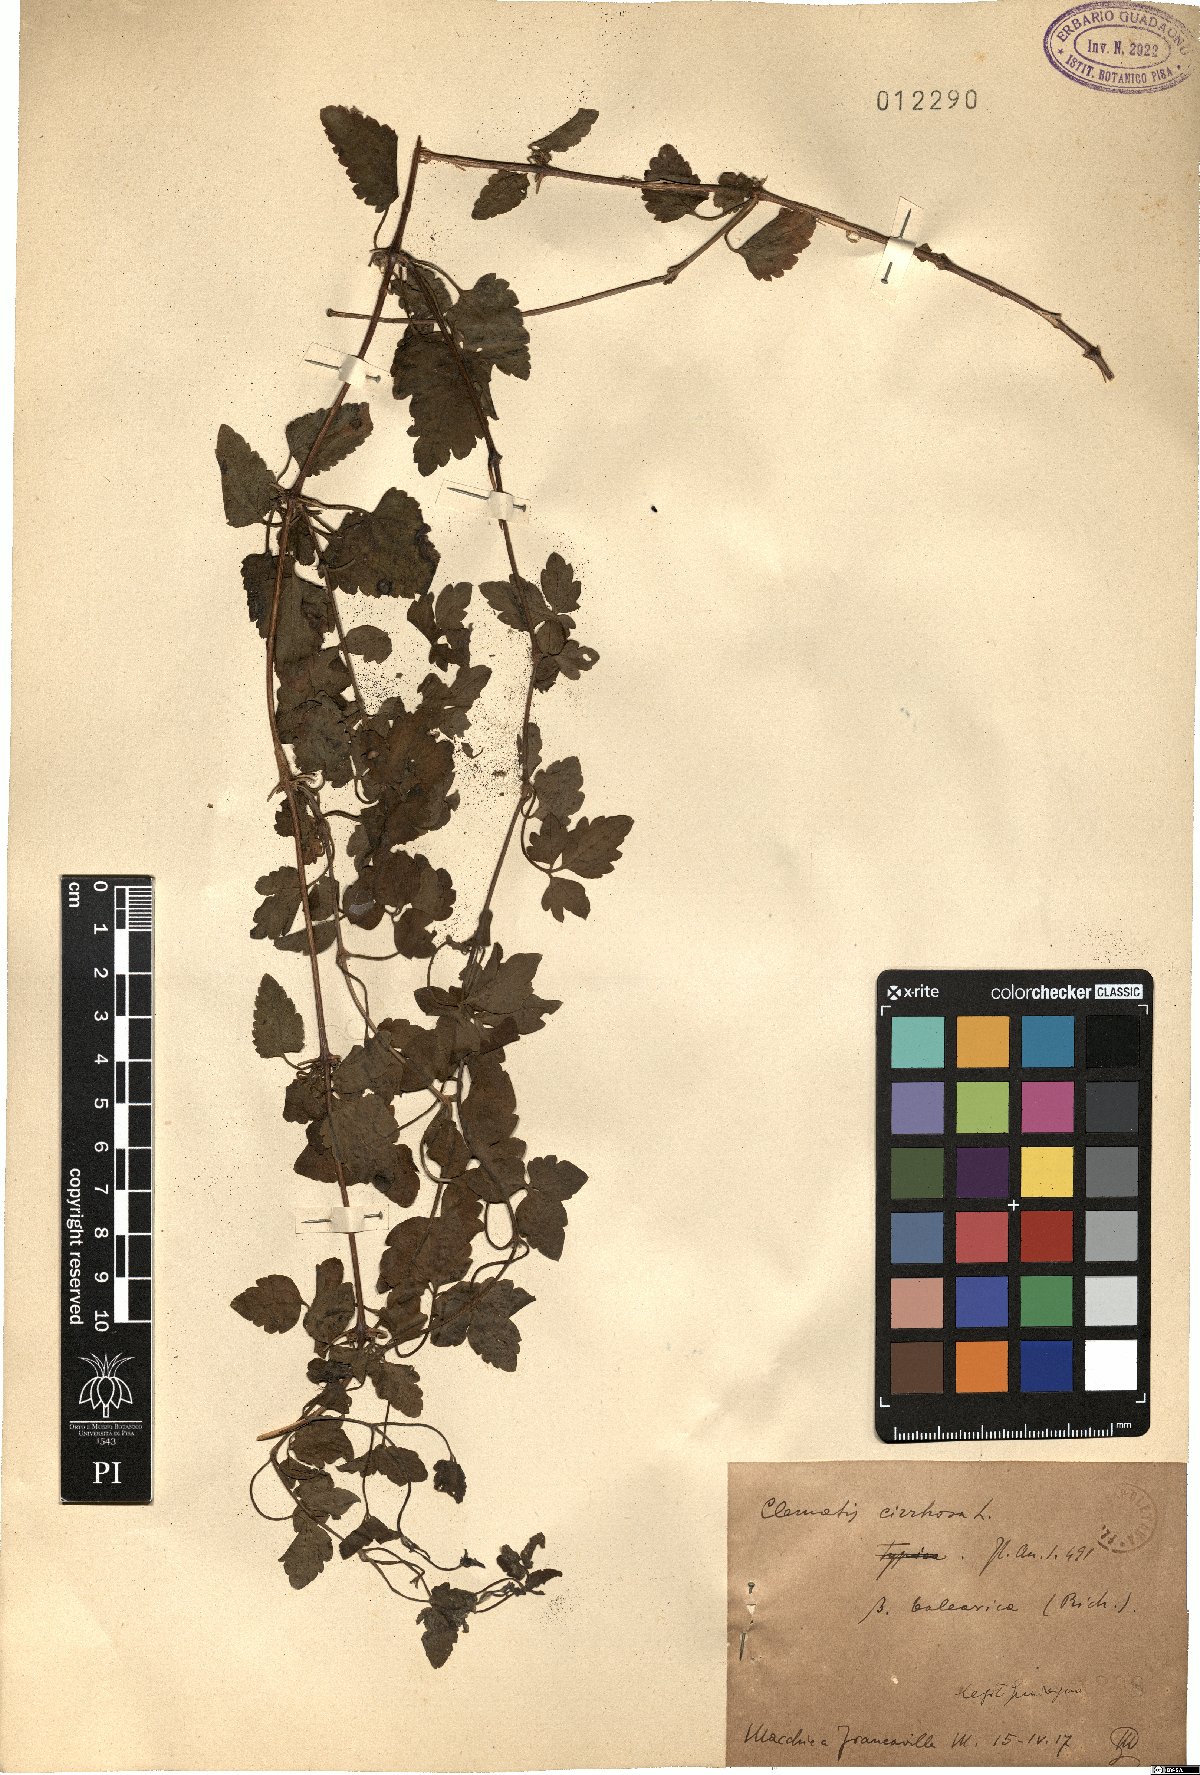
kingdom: Plantae
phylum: Tracheophyta
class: Magnoliopsida
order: Ranunculales
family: Ranunculaceae
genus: Clematis
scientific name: Clematis cirrhosa
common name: Early virgin's-bower
